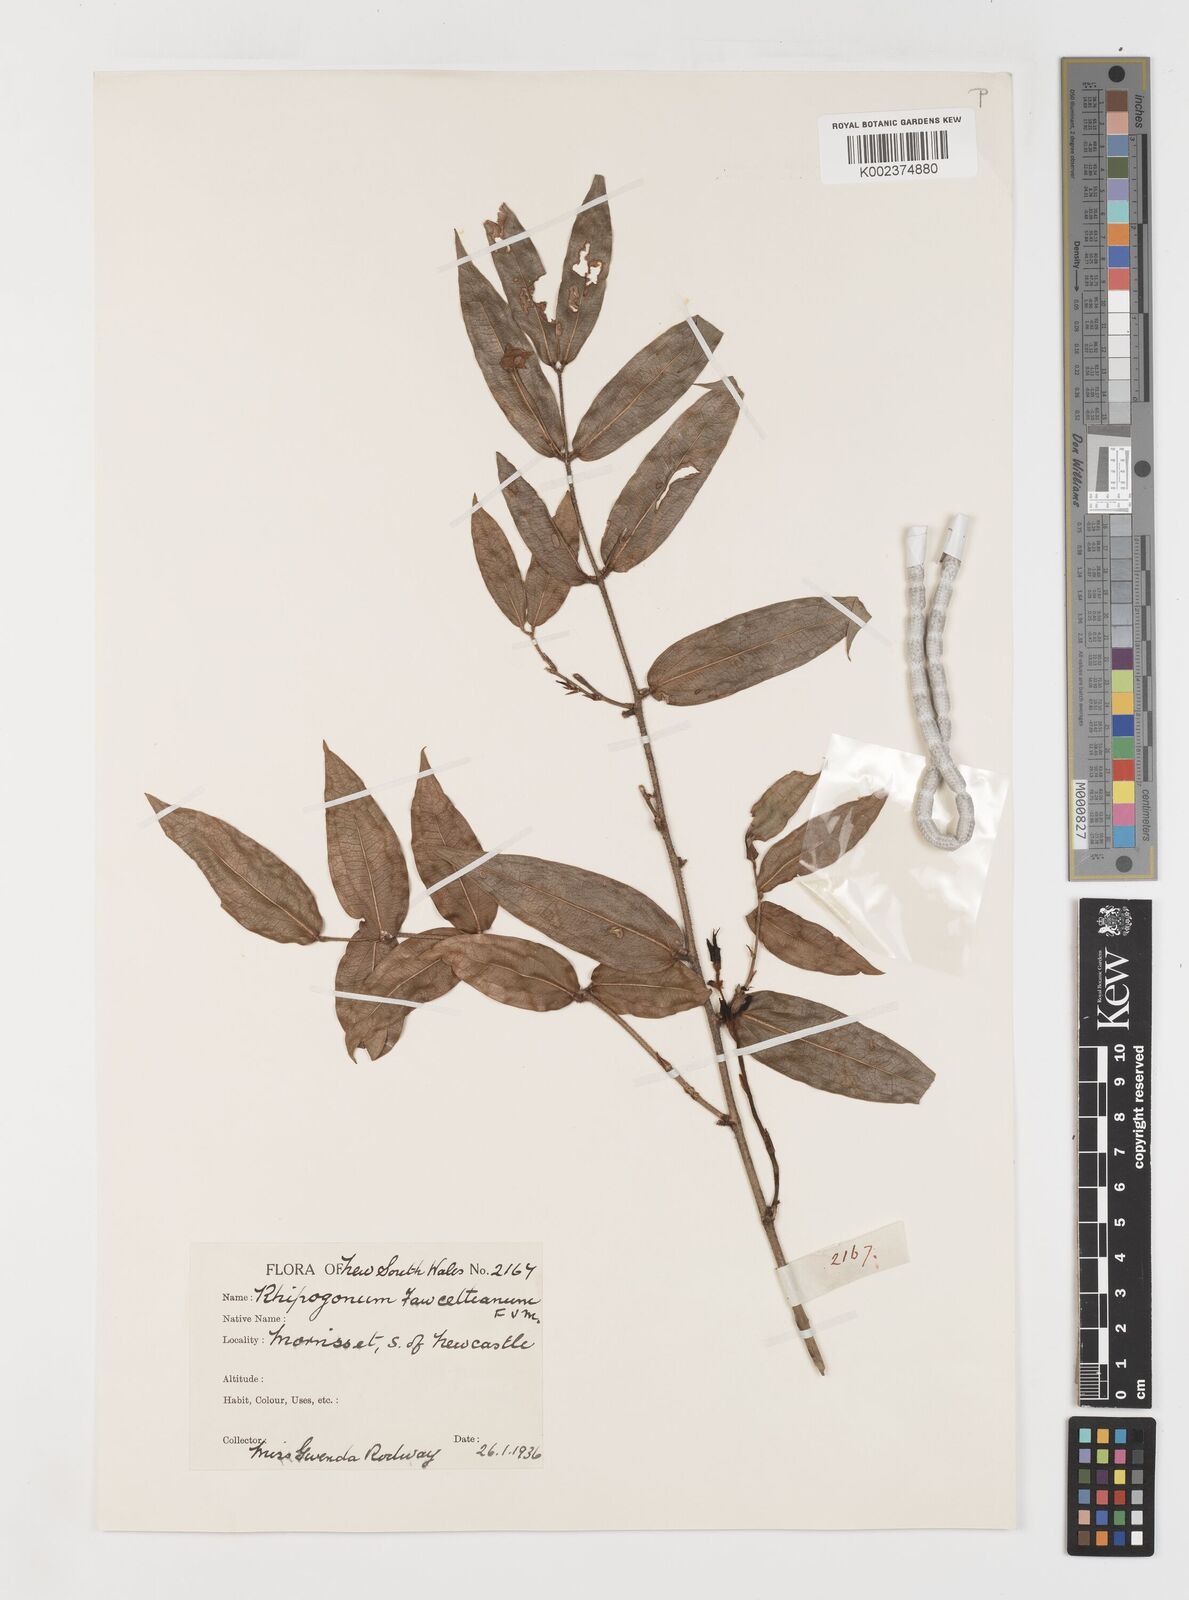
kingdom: Plantae
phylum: Tracheophyta
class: Liliopsida
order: Liliales
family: Ripogonaceae
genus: Ripogonum
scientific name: Ripogonum fawcettianum
